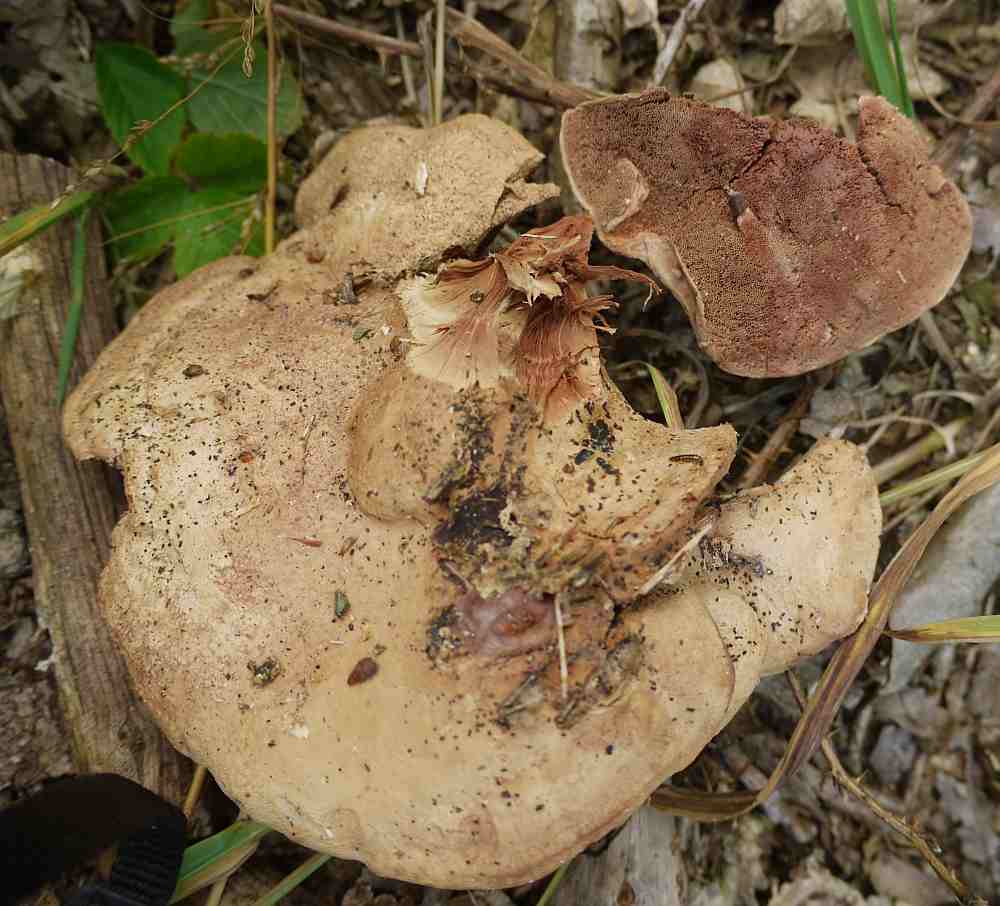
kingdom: Fungi
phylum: Basidiomycota
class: Agaricomycetes
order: Polyporales
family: Phanerochaetaceae
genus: Hapalopilus
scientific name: Hapalopilus rutilans
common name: rødlig okkerporesvamp
